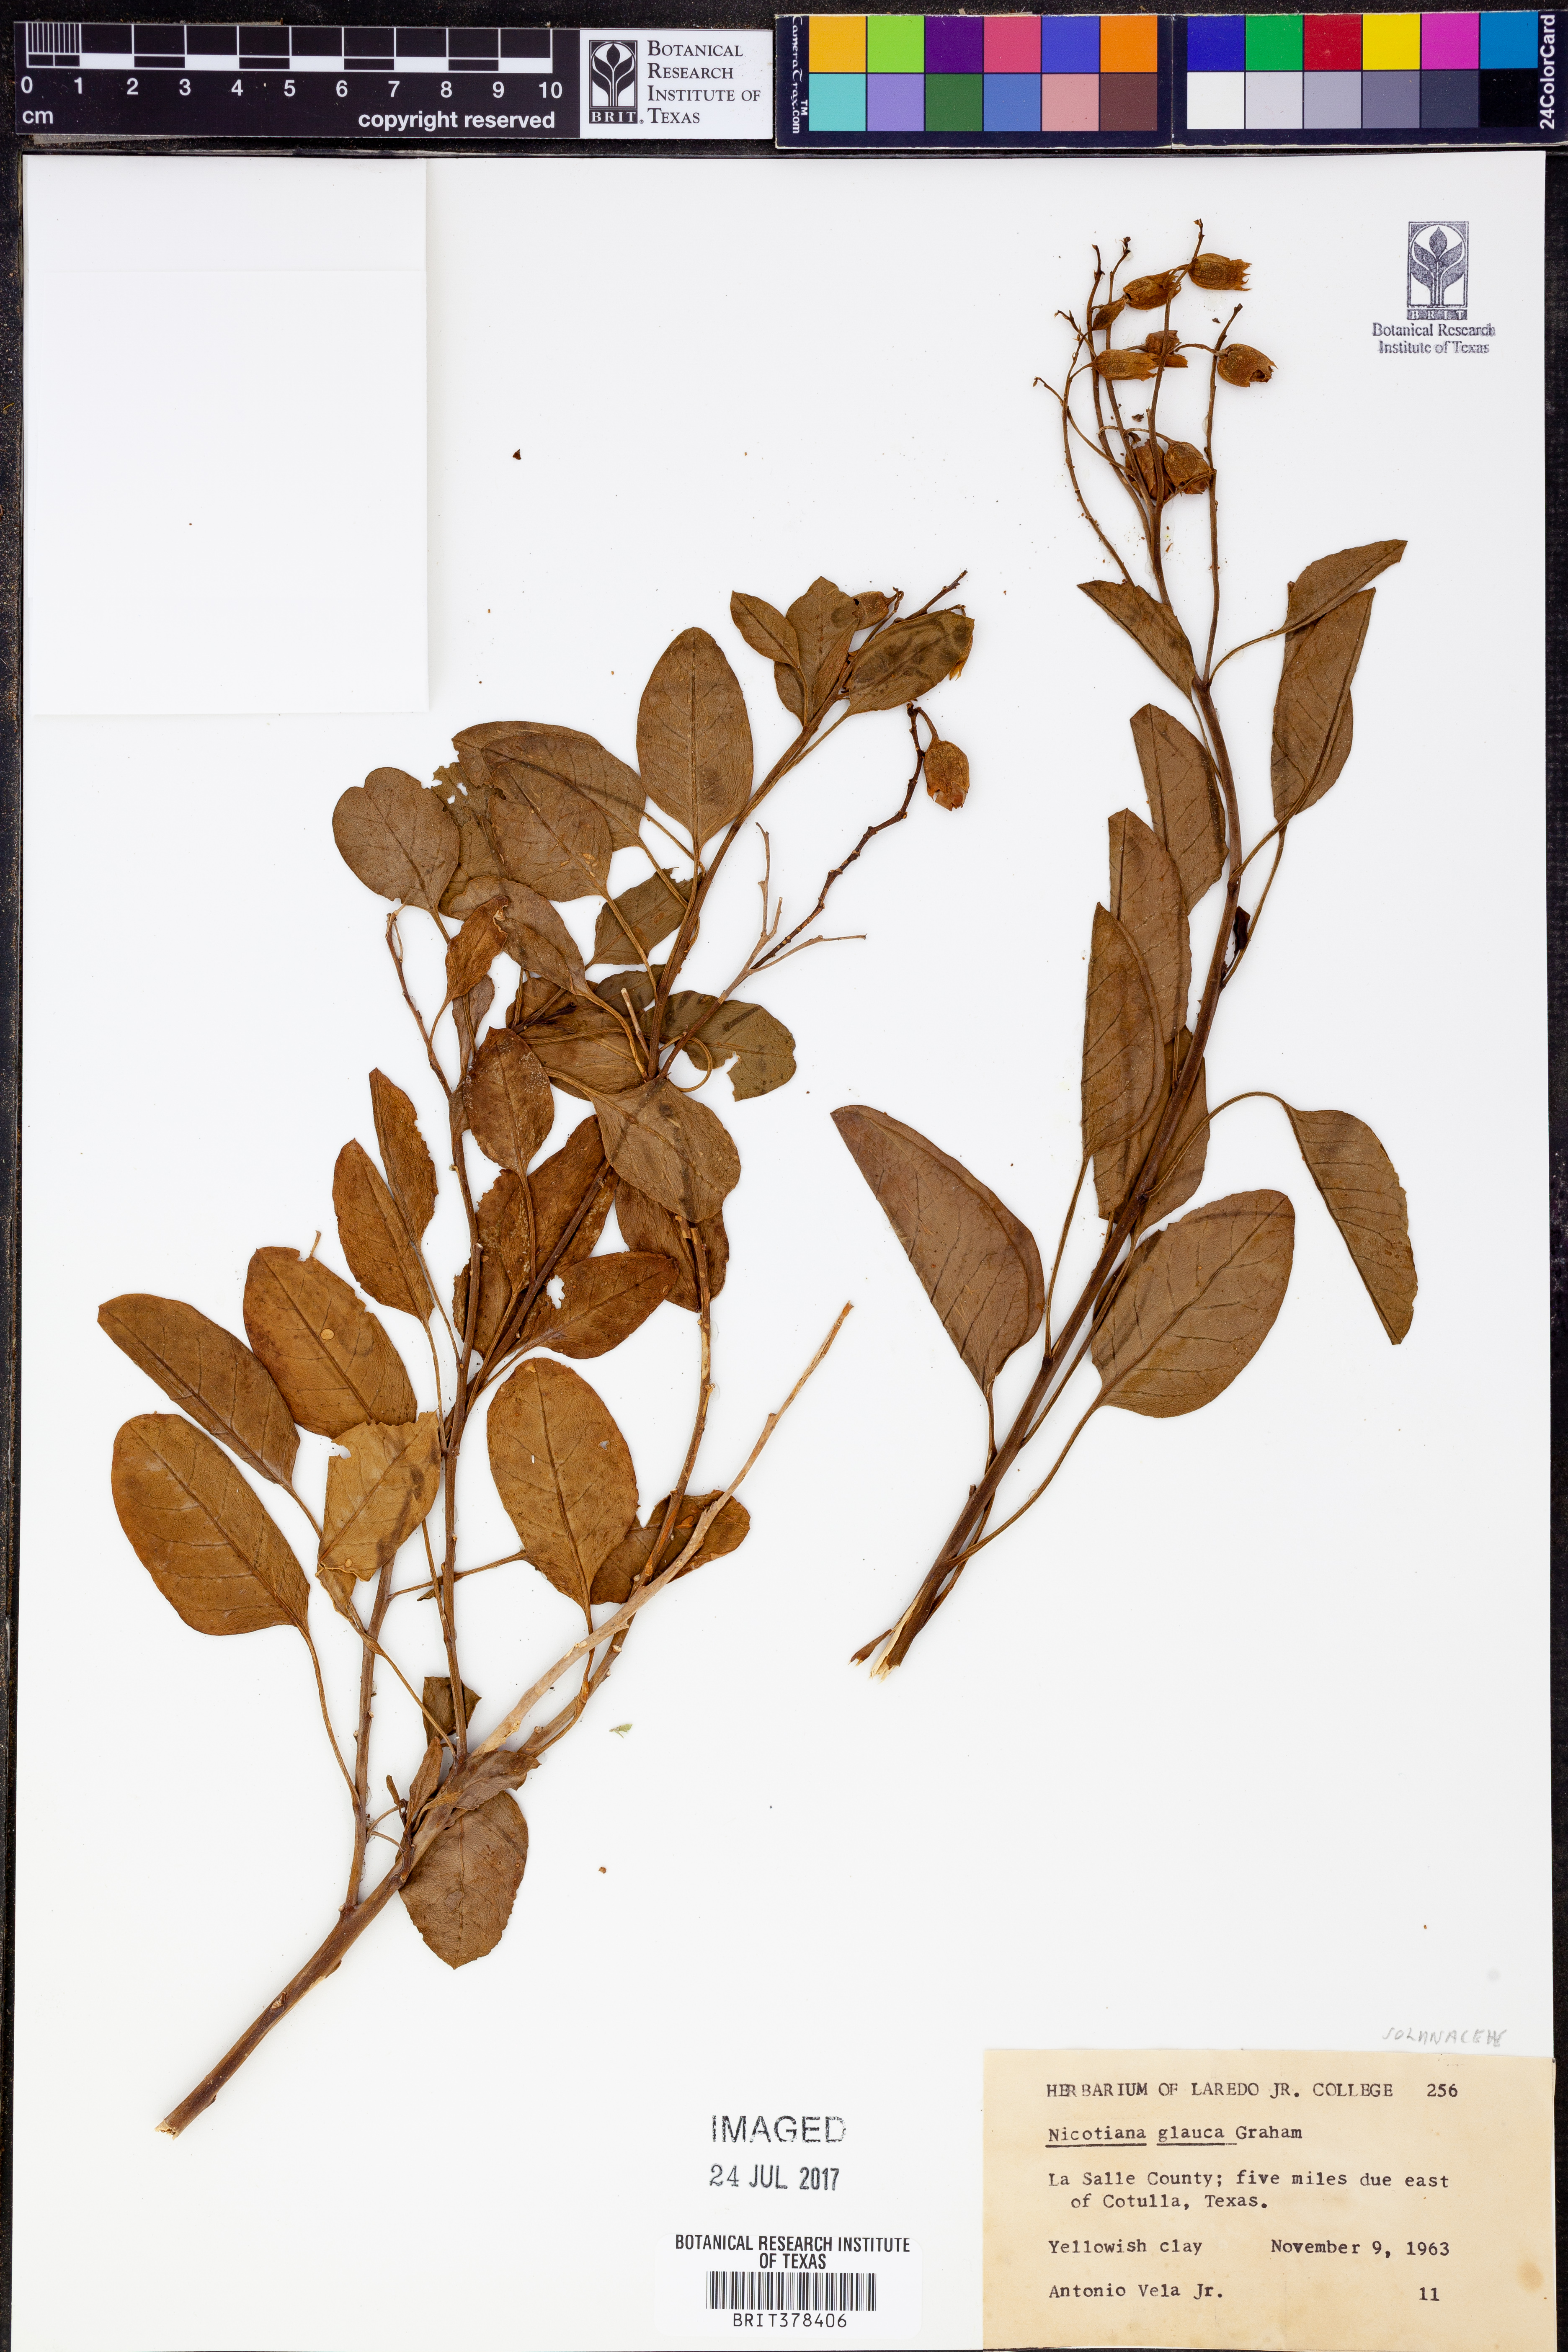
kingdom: Plantae
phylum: Tracheophyta
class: Magnoliopsida
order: Solanales
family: Solanaceae
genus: Nicotiana
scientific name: Nicotiana glauca
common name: Tree tobacco
